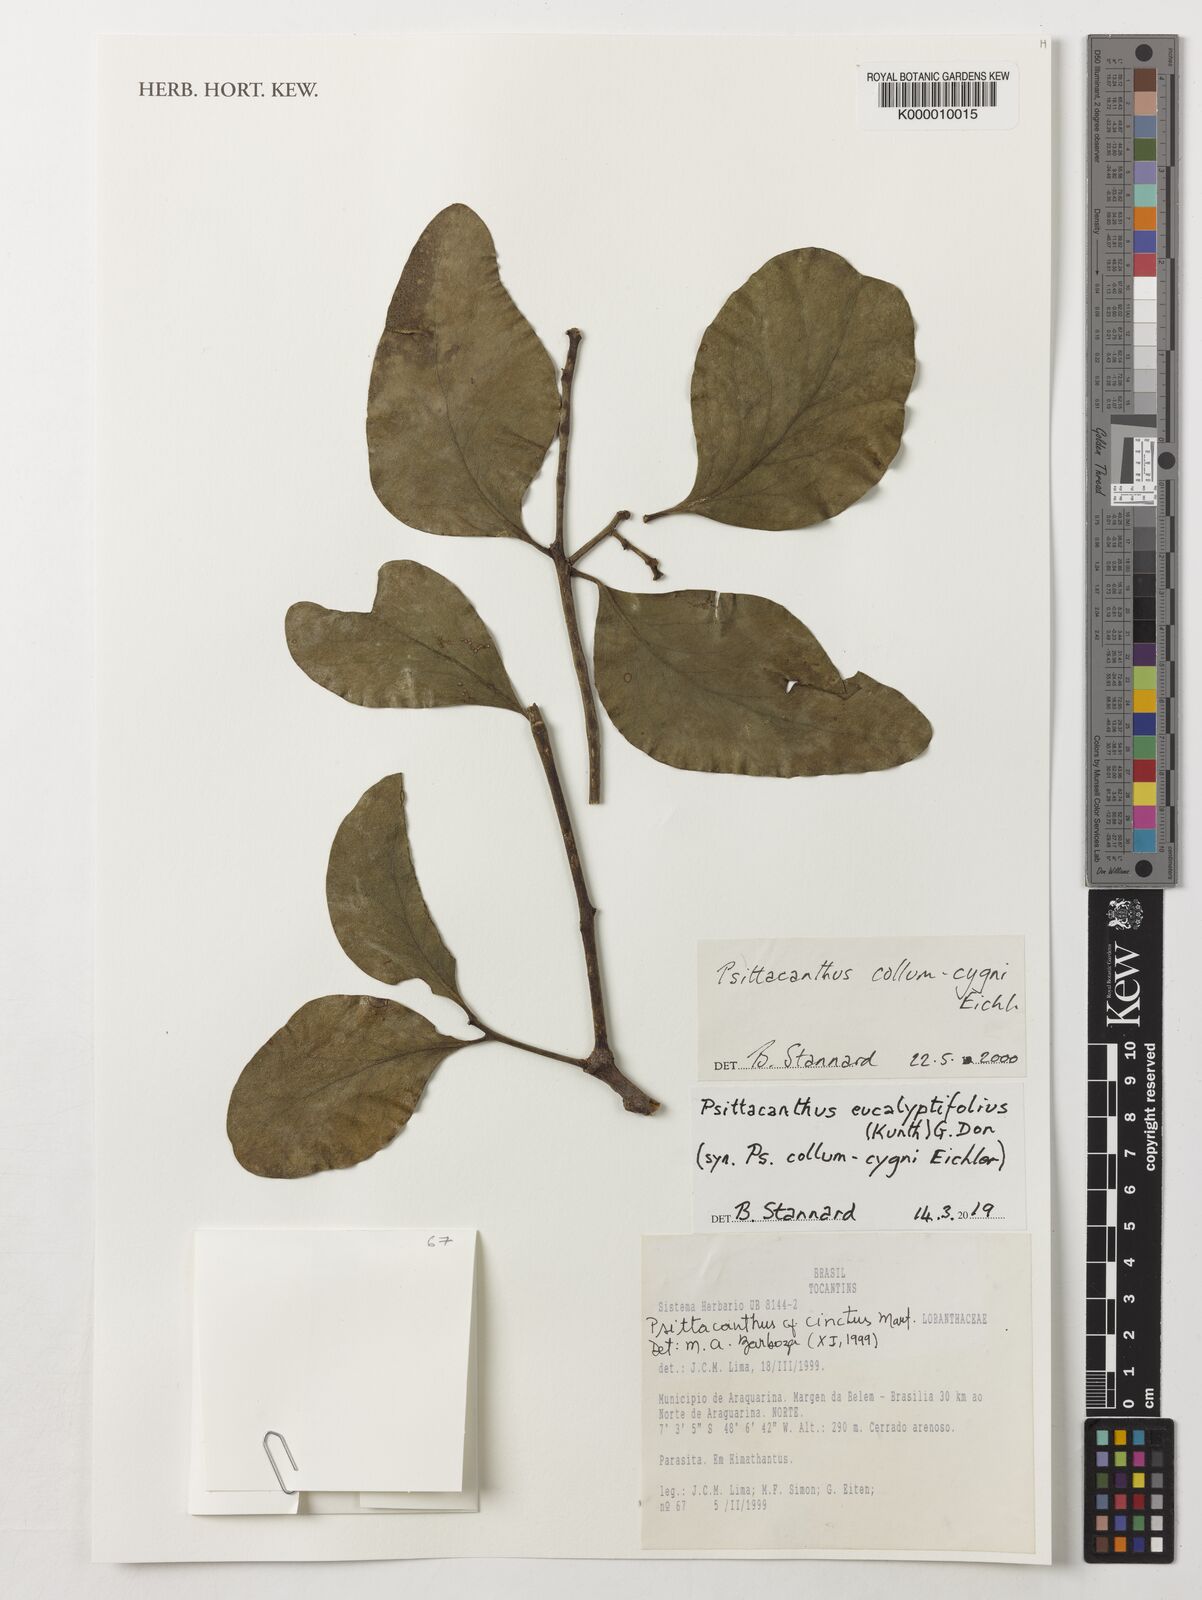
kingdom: Plantae
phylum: Tracheophyta
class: Magnoliopsida
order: Santalales
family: Loranthaceae
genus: Psittacanthus
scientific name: Psittacanthus eucalyptifolius
